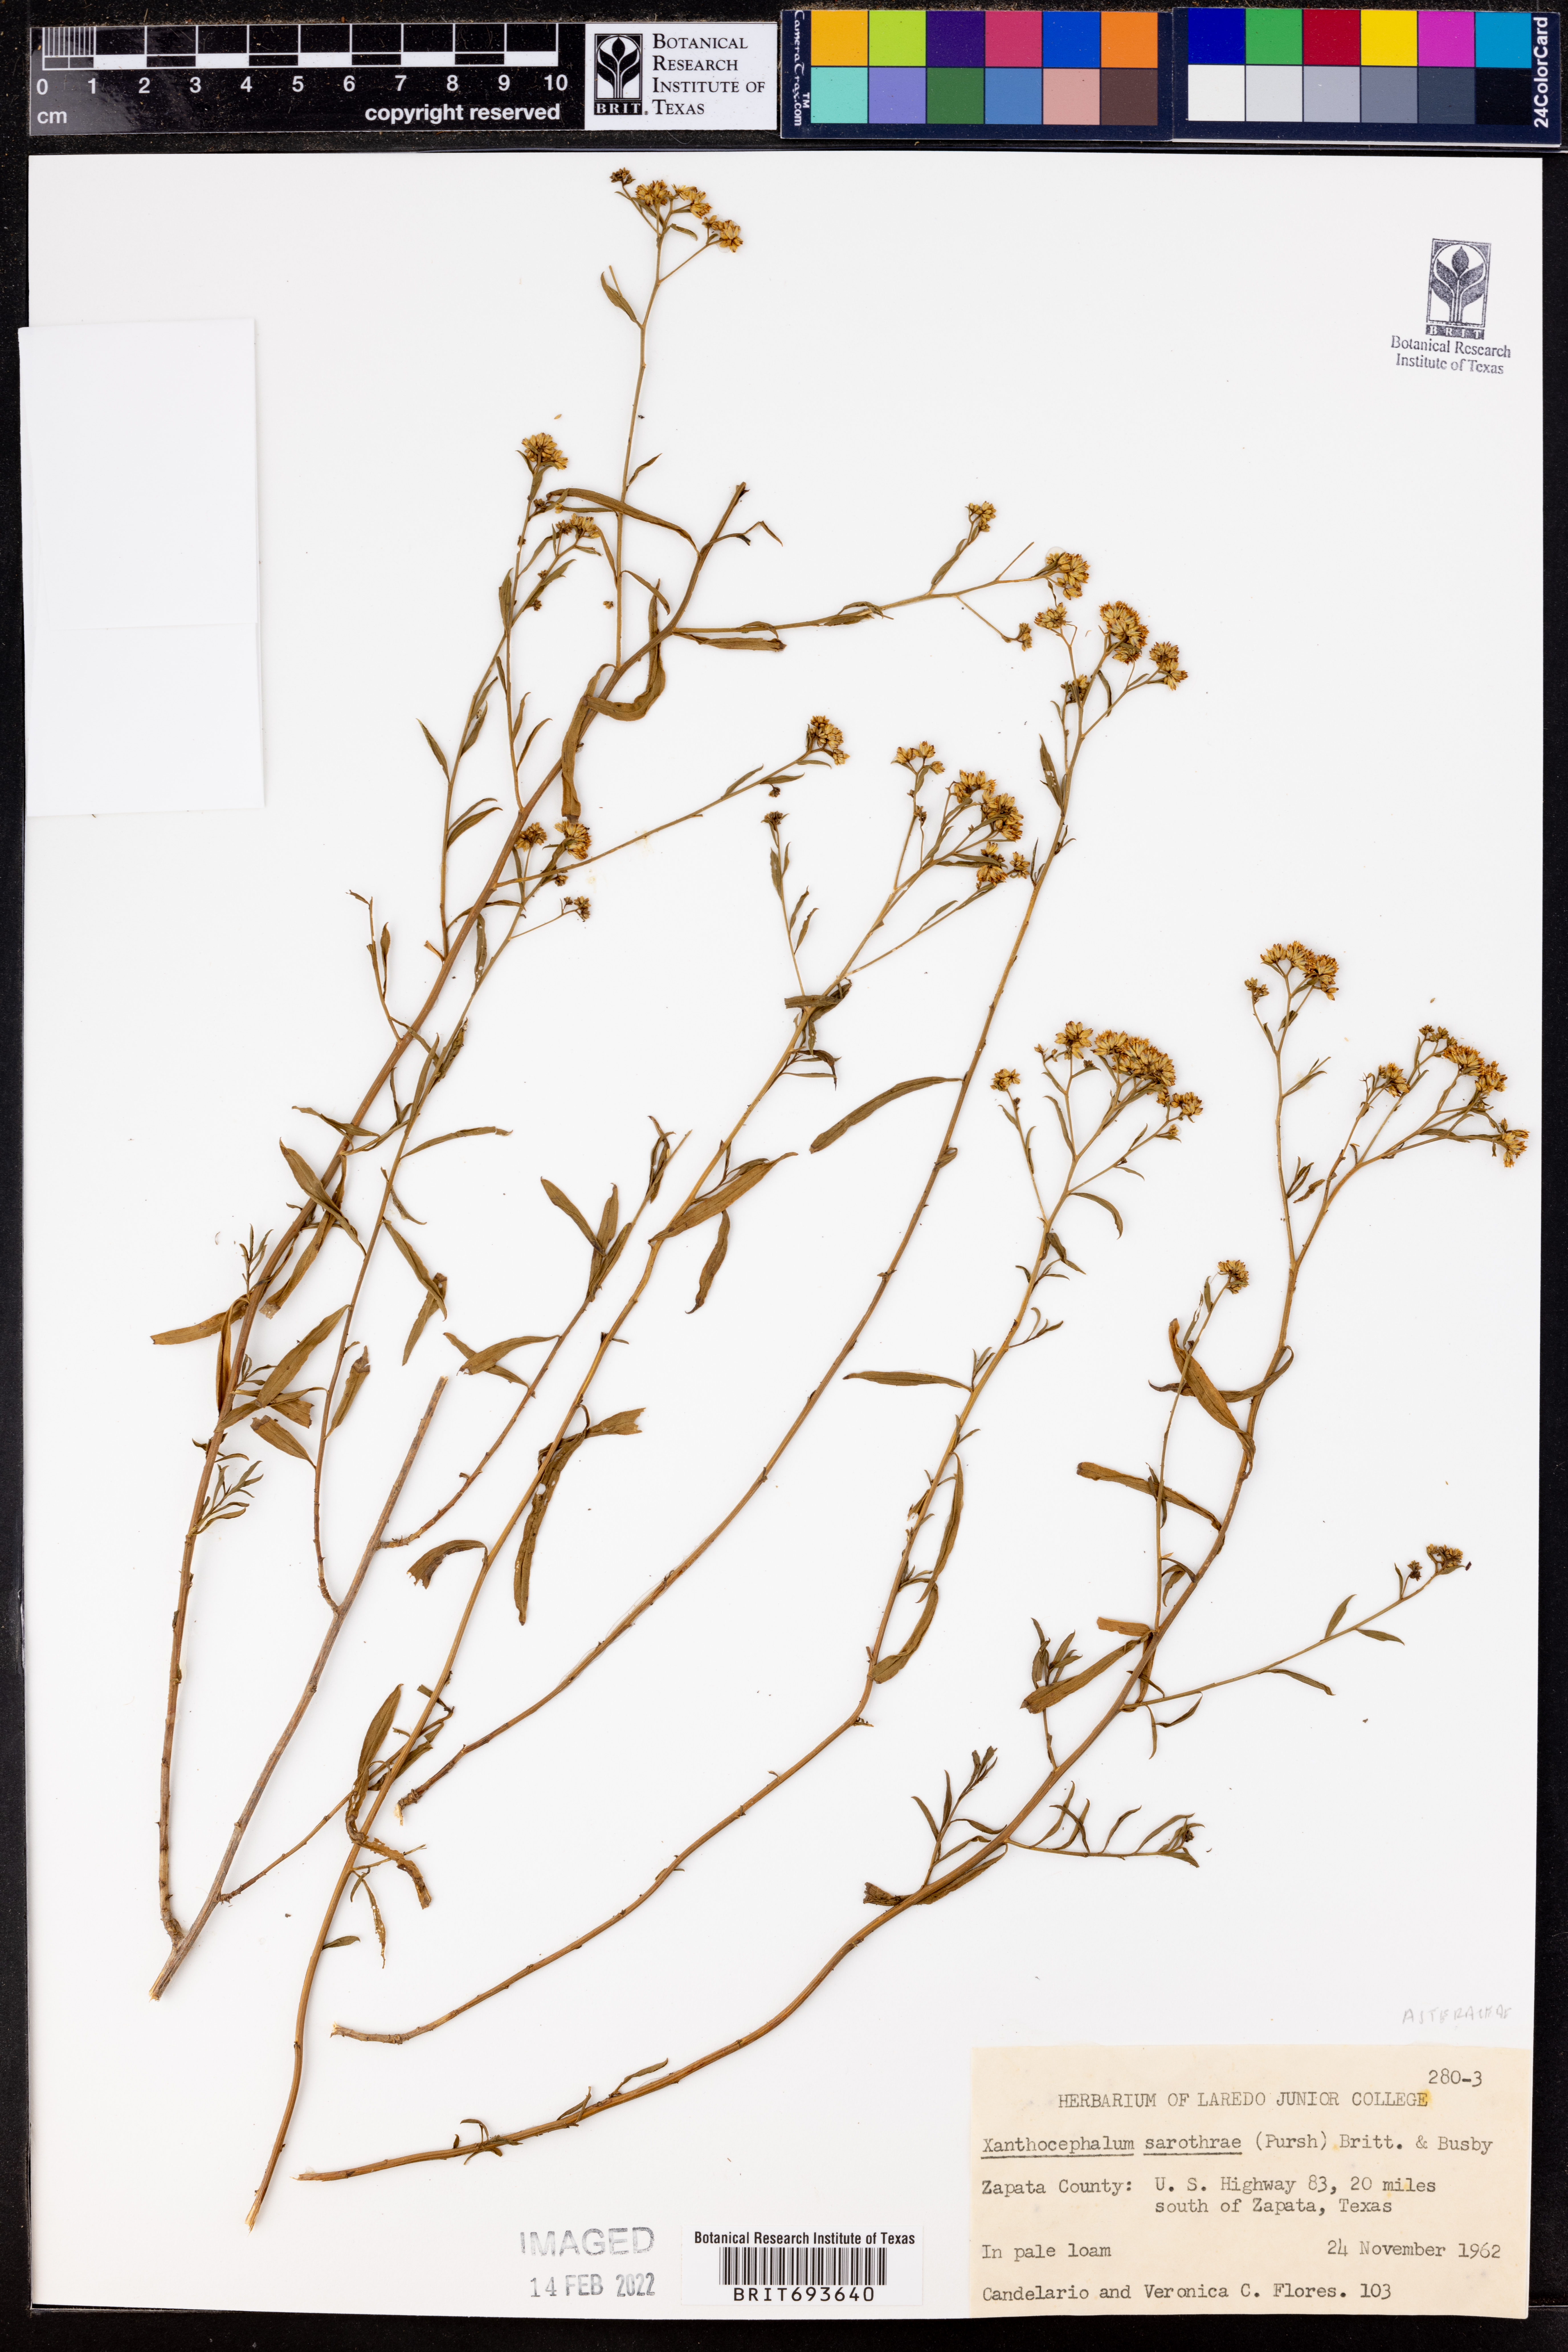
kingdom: Plantae
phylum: Tracheophyta
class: Magnoliopsida
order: Asterales
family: Asteraceae
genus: Gutierrezia
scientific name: Gutierrezia sarothrae
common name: Broom snakeweed
